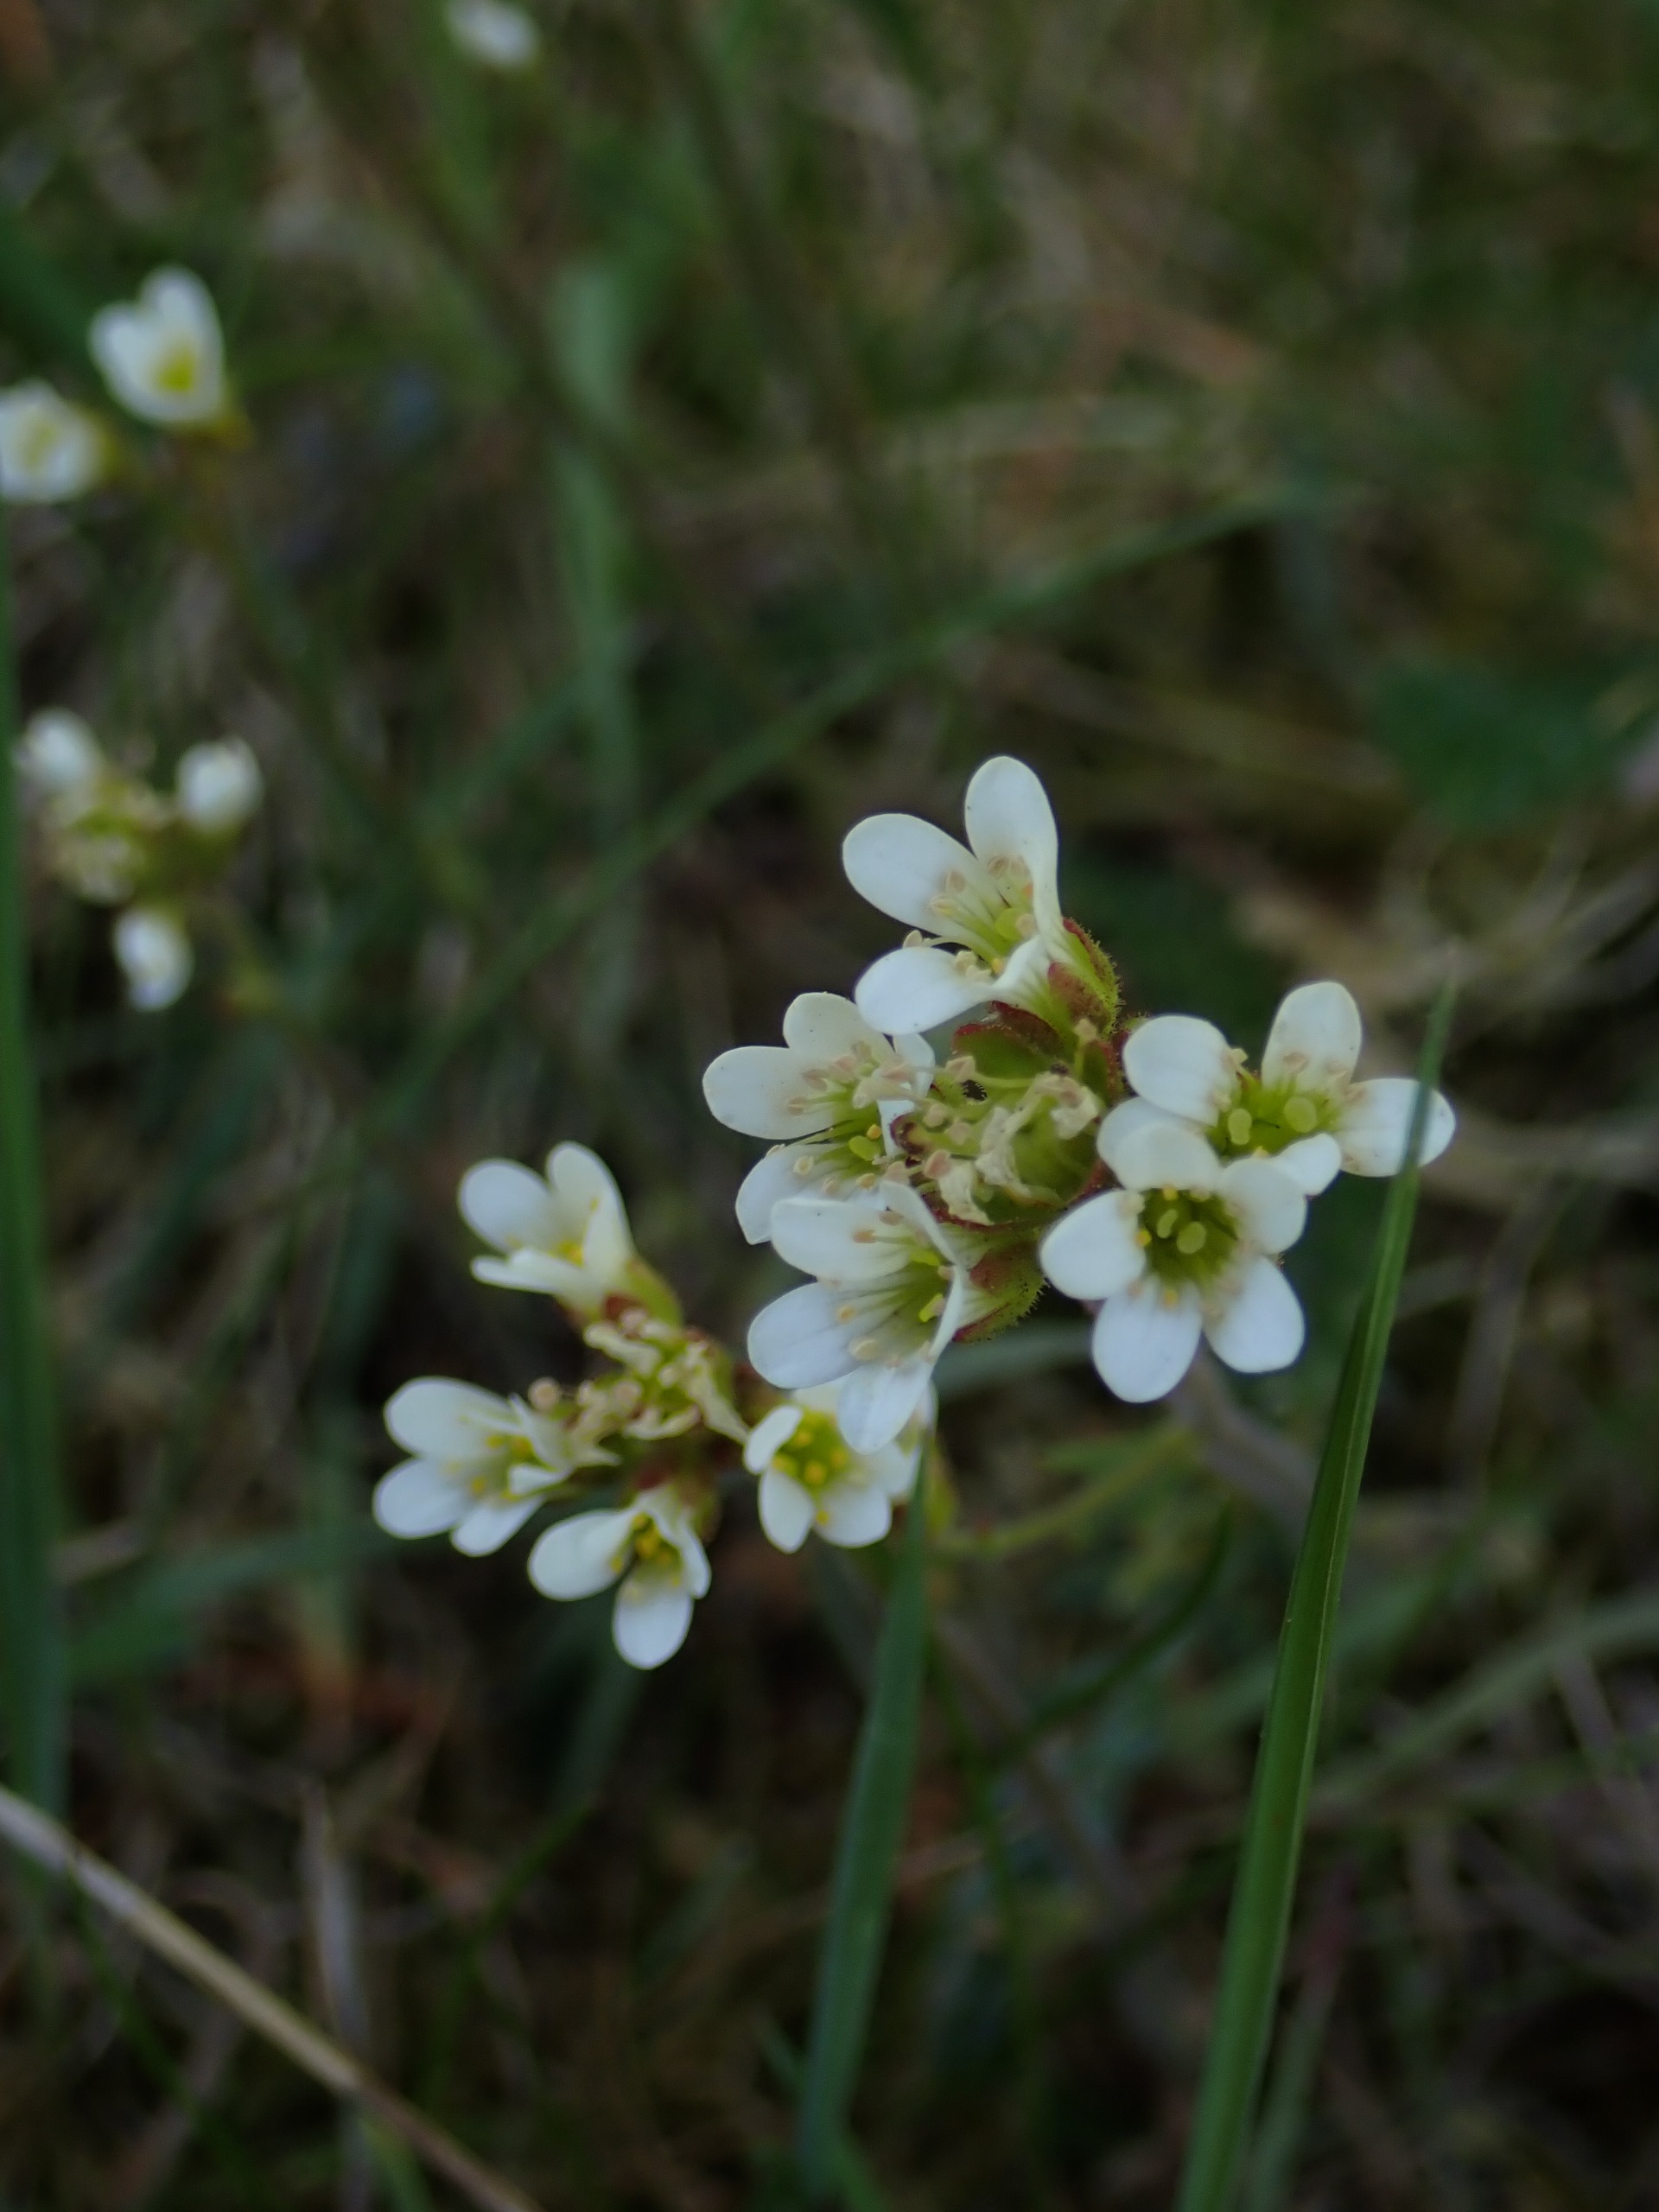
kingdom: Plantae
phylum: Tracheophyta
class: Magnoliopsida
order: Saxifragales
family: Saxifragaceae
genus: Saxifraga
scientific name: Saxifraga granulata
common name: Kornet stenbræk
